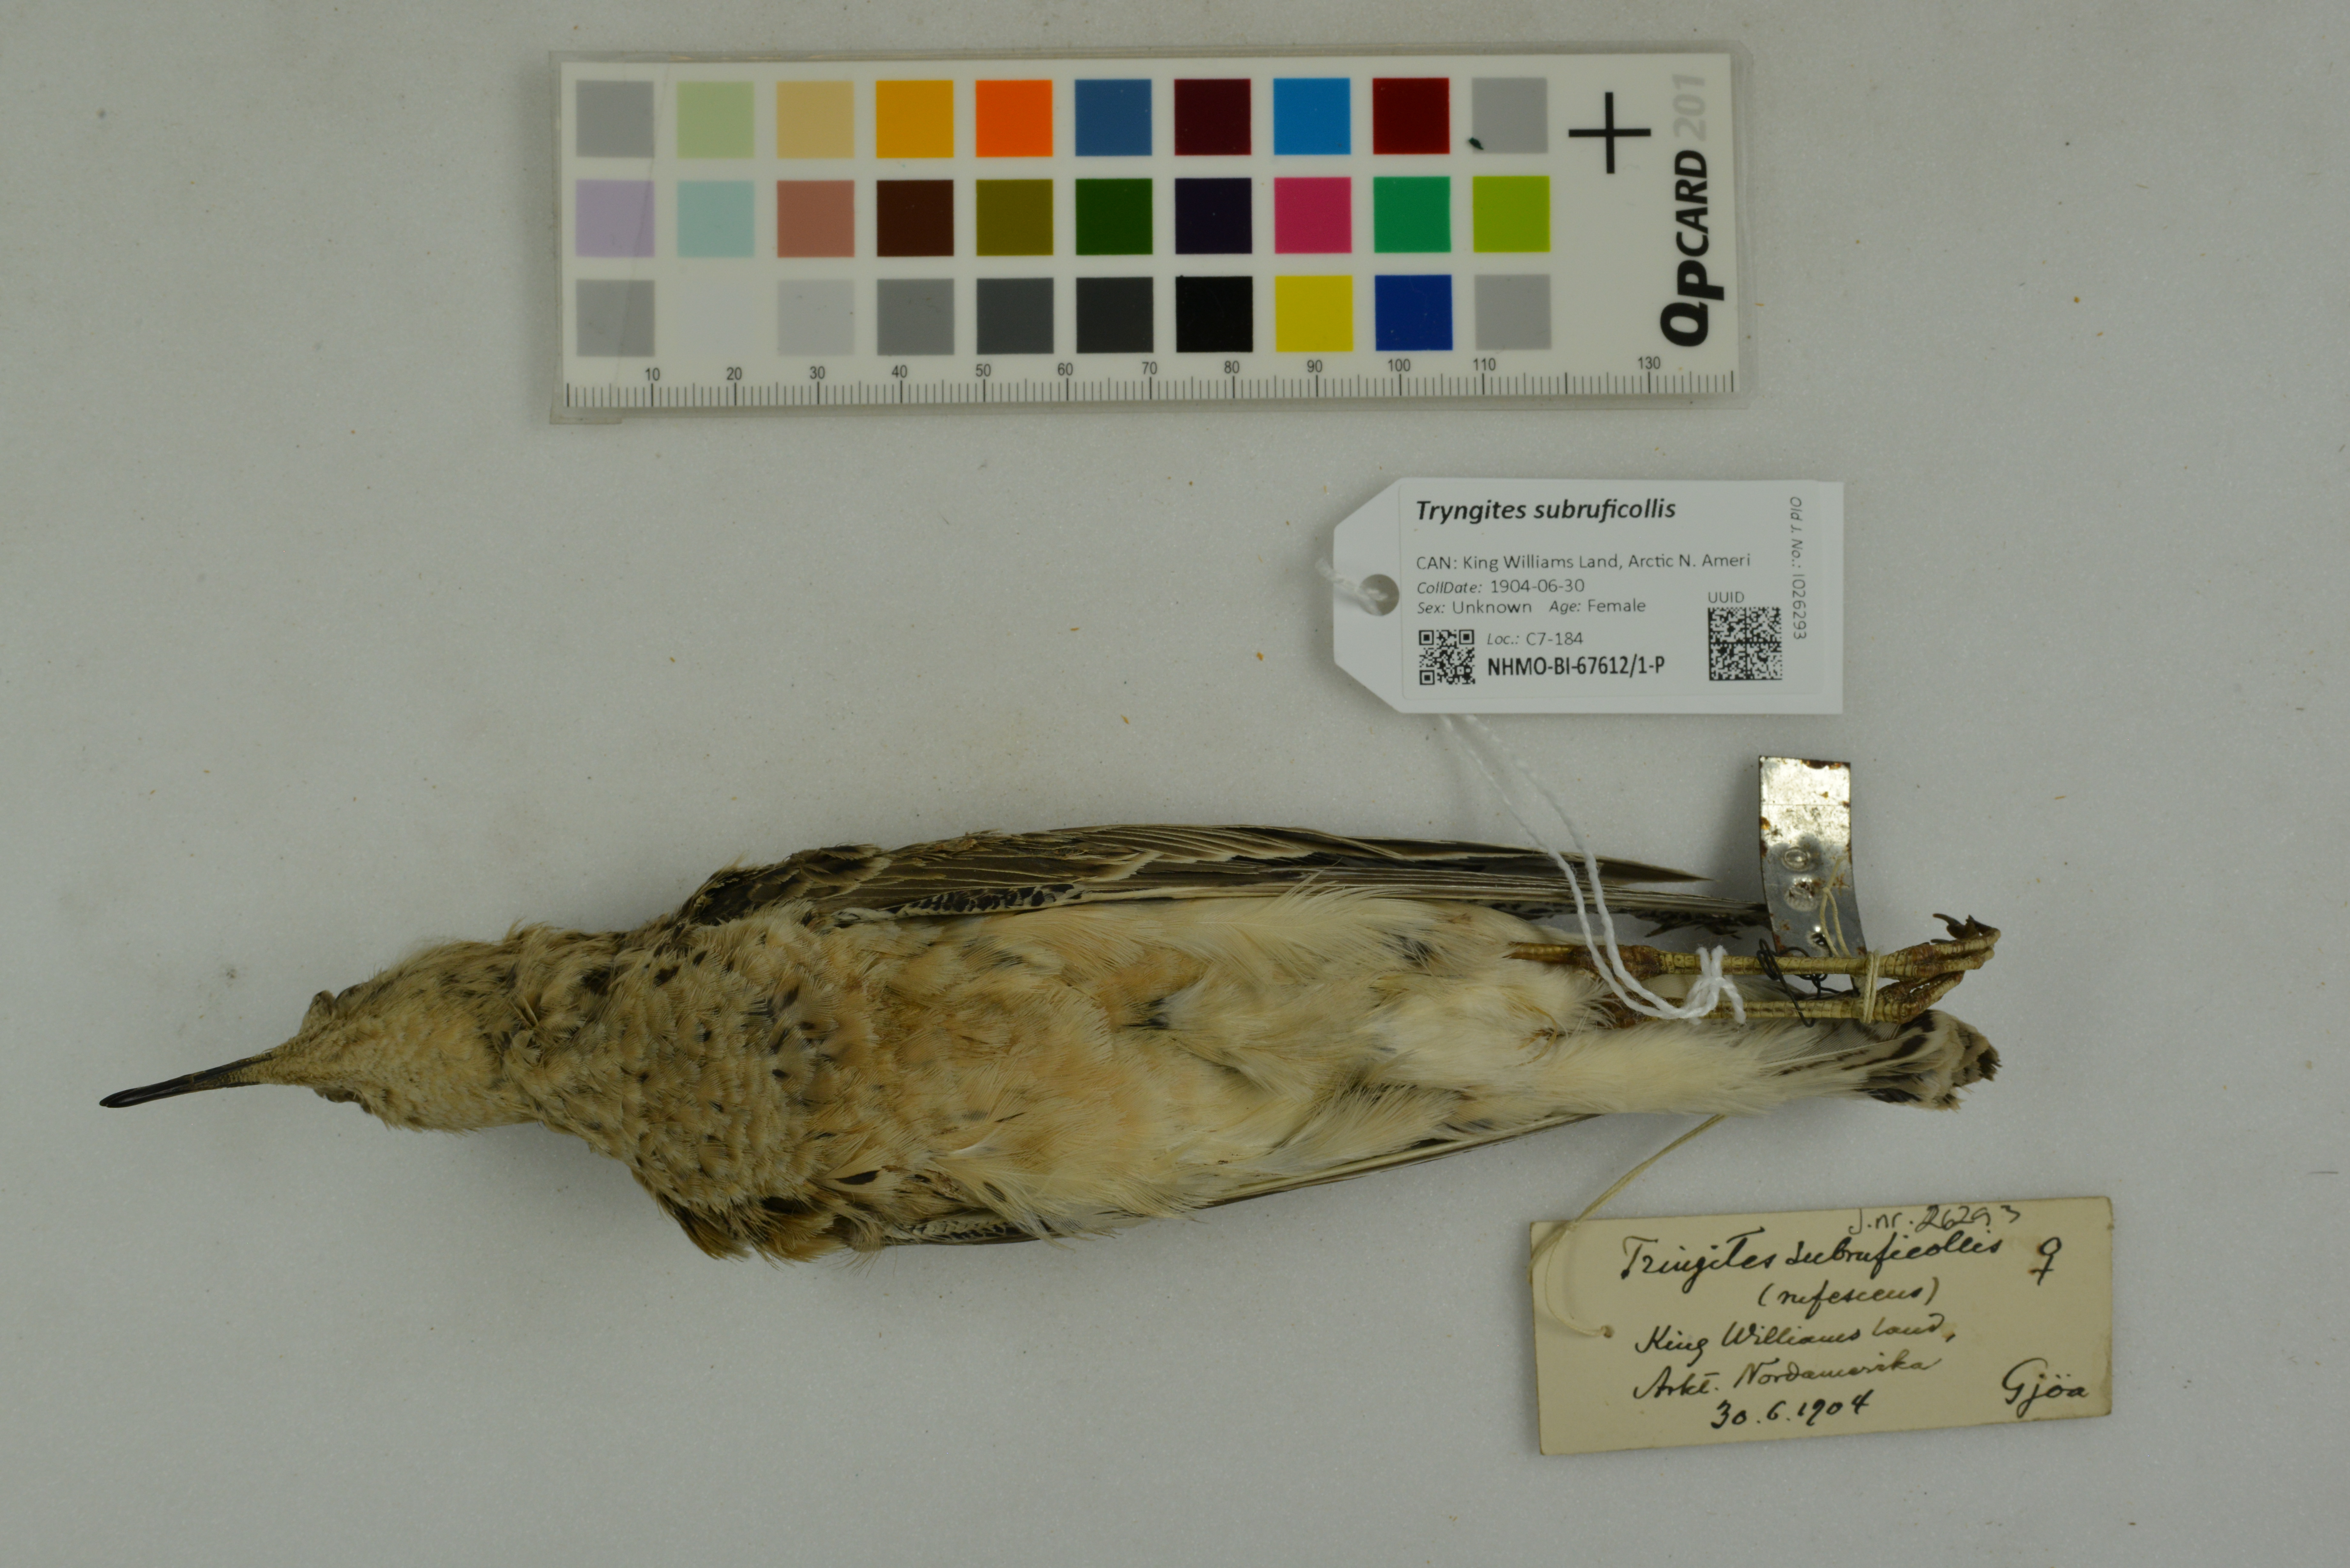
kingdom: Animalia
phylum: Chordata
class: Aves
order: Charadriiformes
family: Scolopacidae
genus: Calidris
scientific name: Calidris subruficollis
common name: Buff-breasted sandpiper
